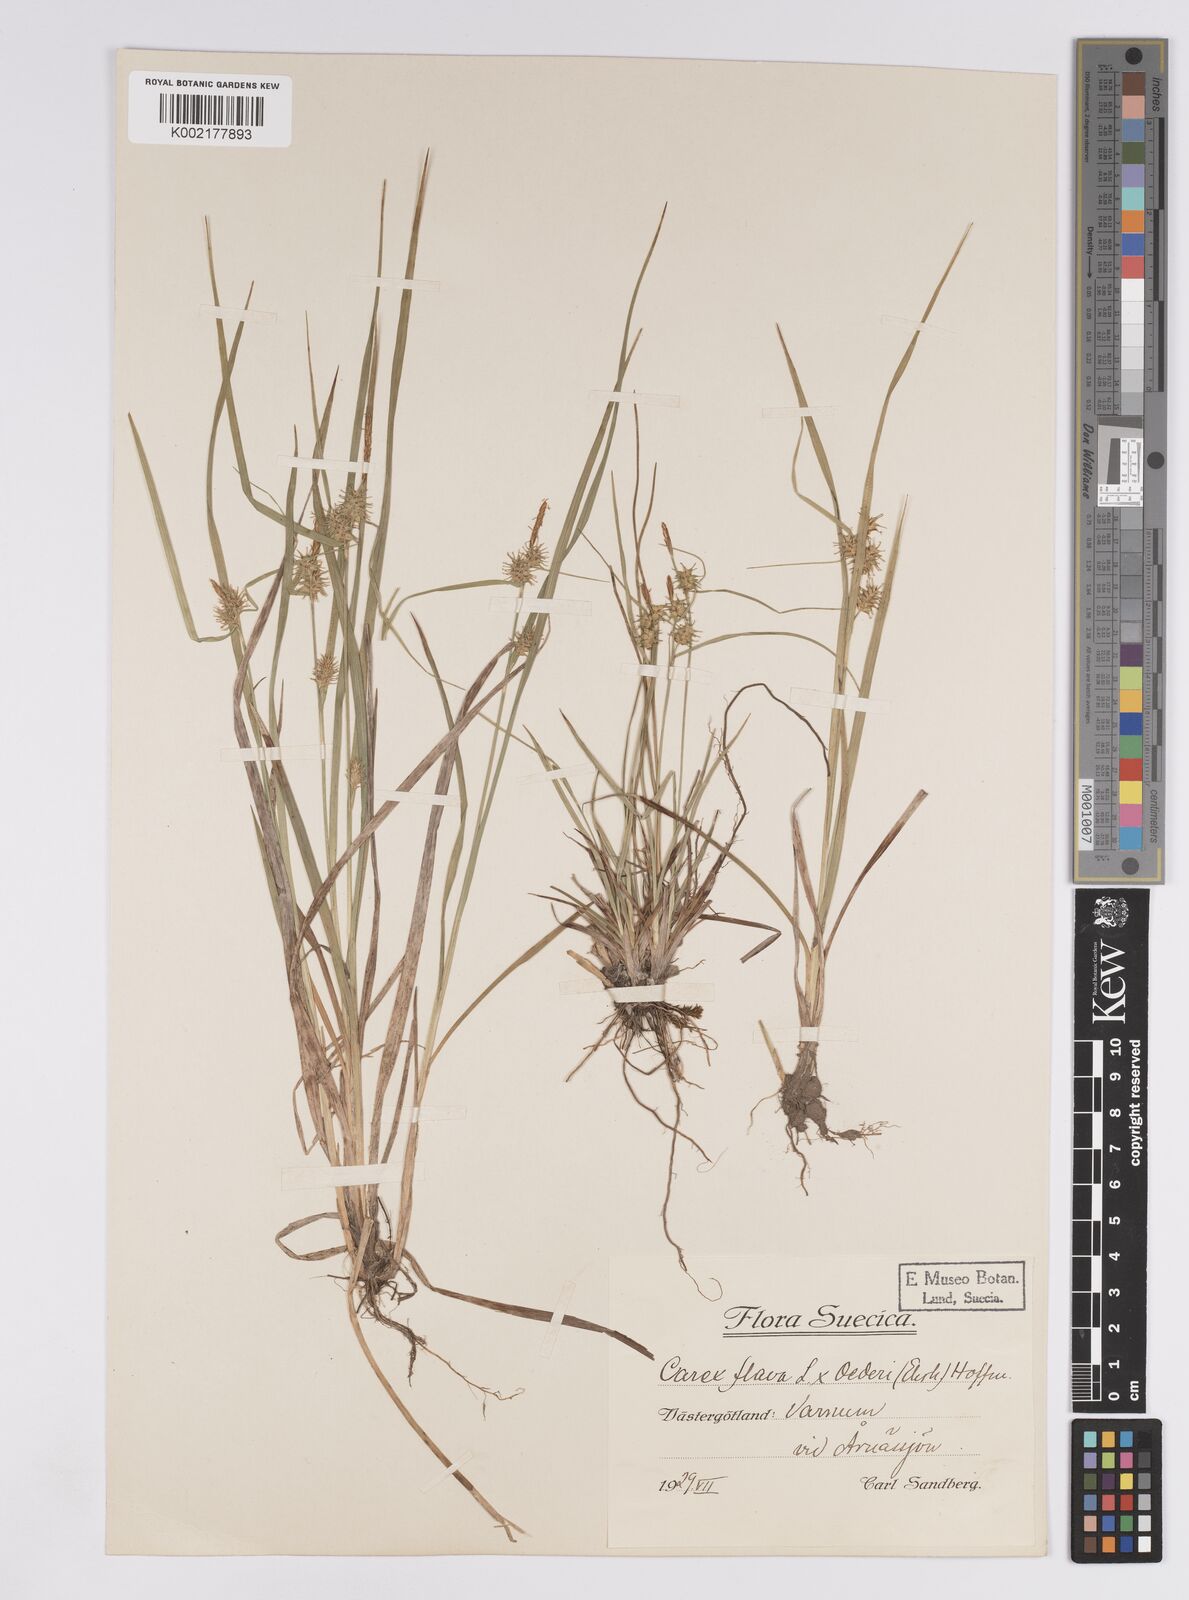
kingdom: Plantae
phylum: Tracheophyta
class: Liliopsida
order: Poales
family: Cyperaceae
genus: Carex
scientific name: Carex flava
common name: Large yellow-sedge
